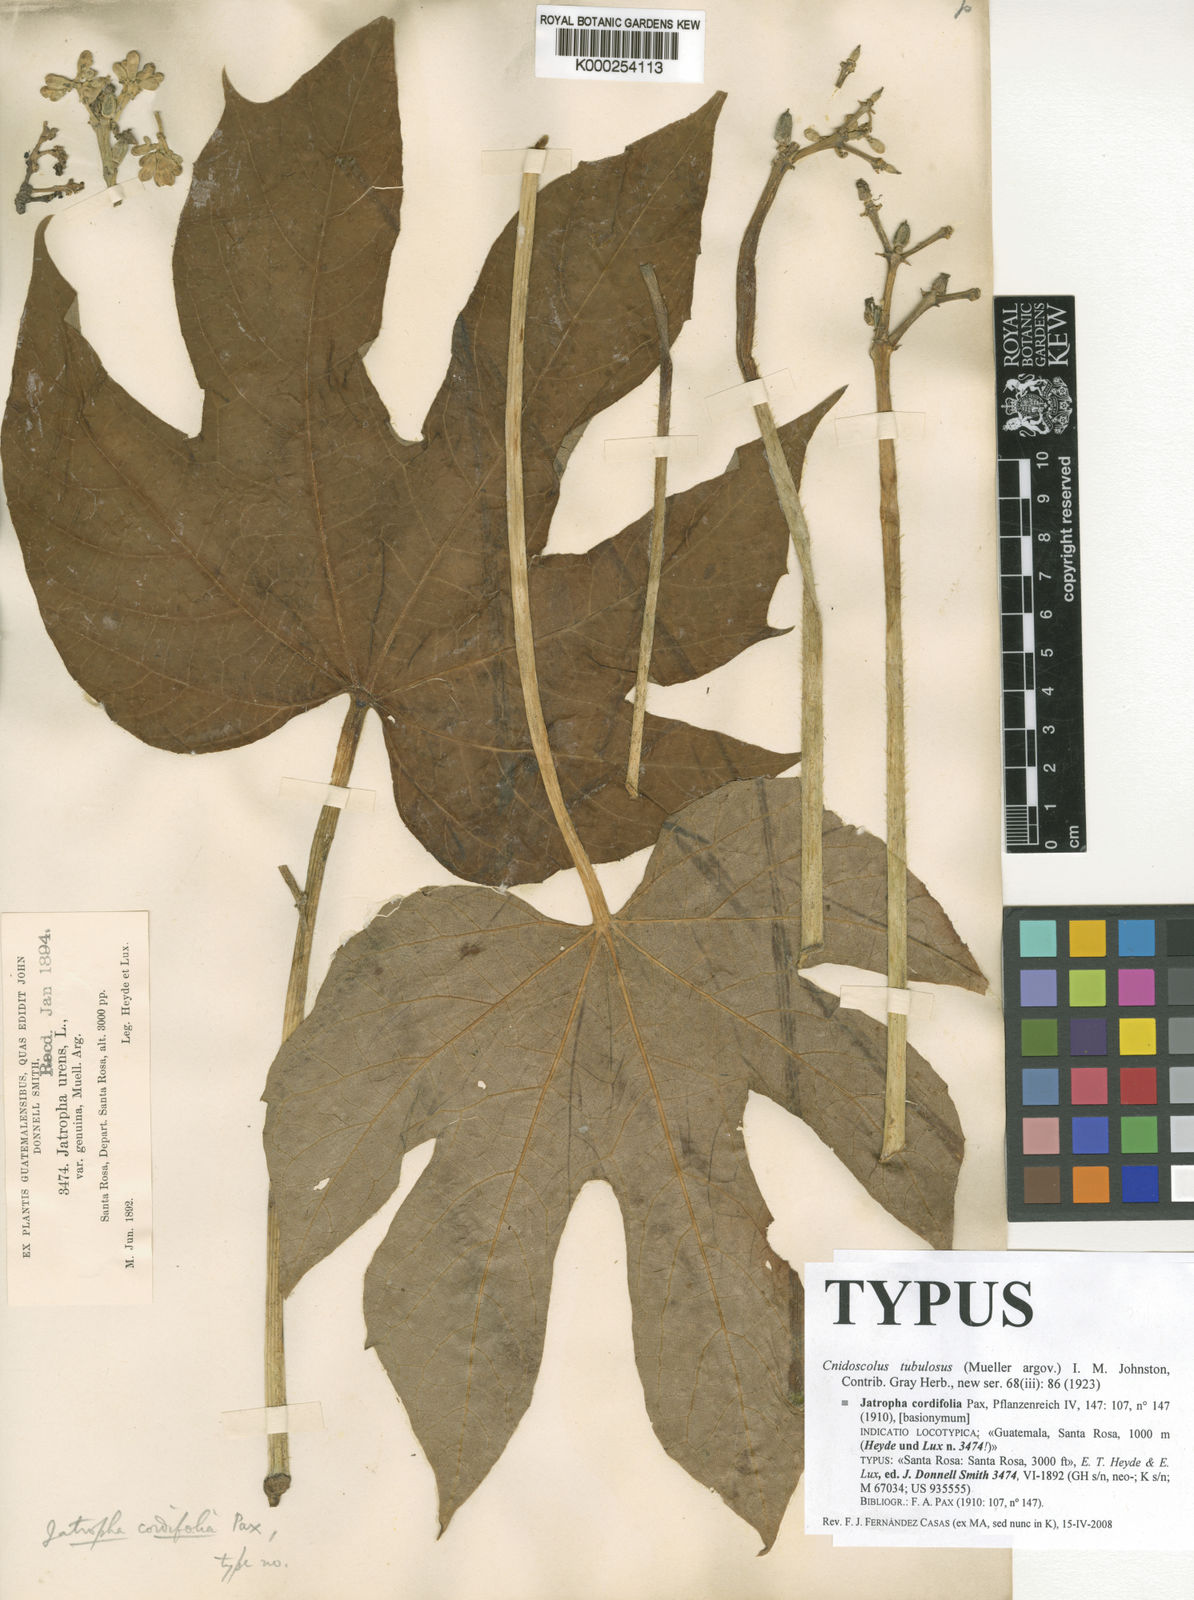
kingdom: Plantae
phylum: Tracheophyta
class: Magnoliopsida
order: Malpighiales
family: Euphorbiaceae
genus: Cnidoscolus
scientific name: Cnidoscolus tubulosus
